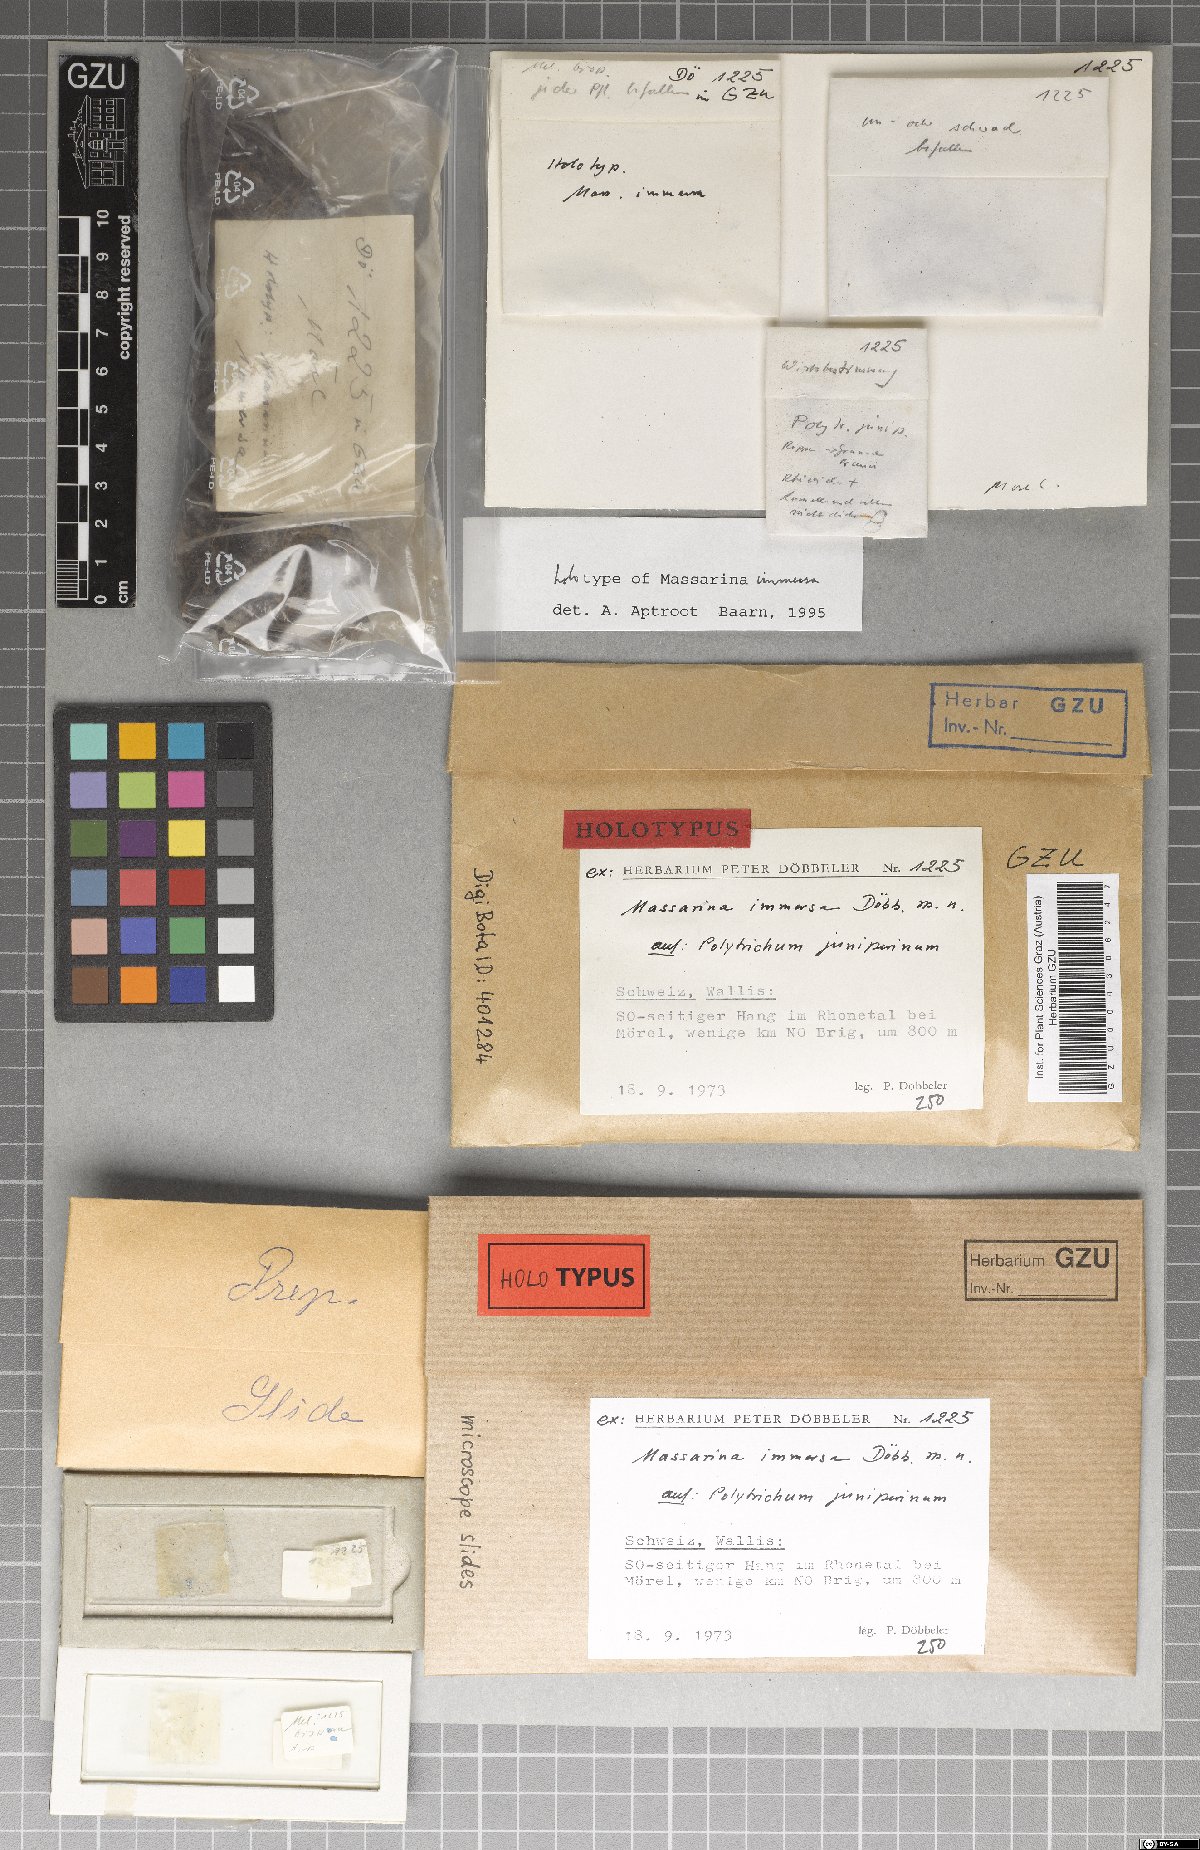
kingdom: Fungi
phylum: Ascomycota
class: Dothideomycetes
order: Pleosporales
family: Massarinaceae
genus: Massarina
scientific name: Massarina immersa
